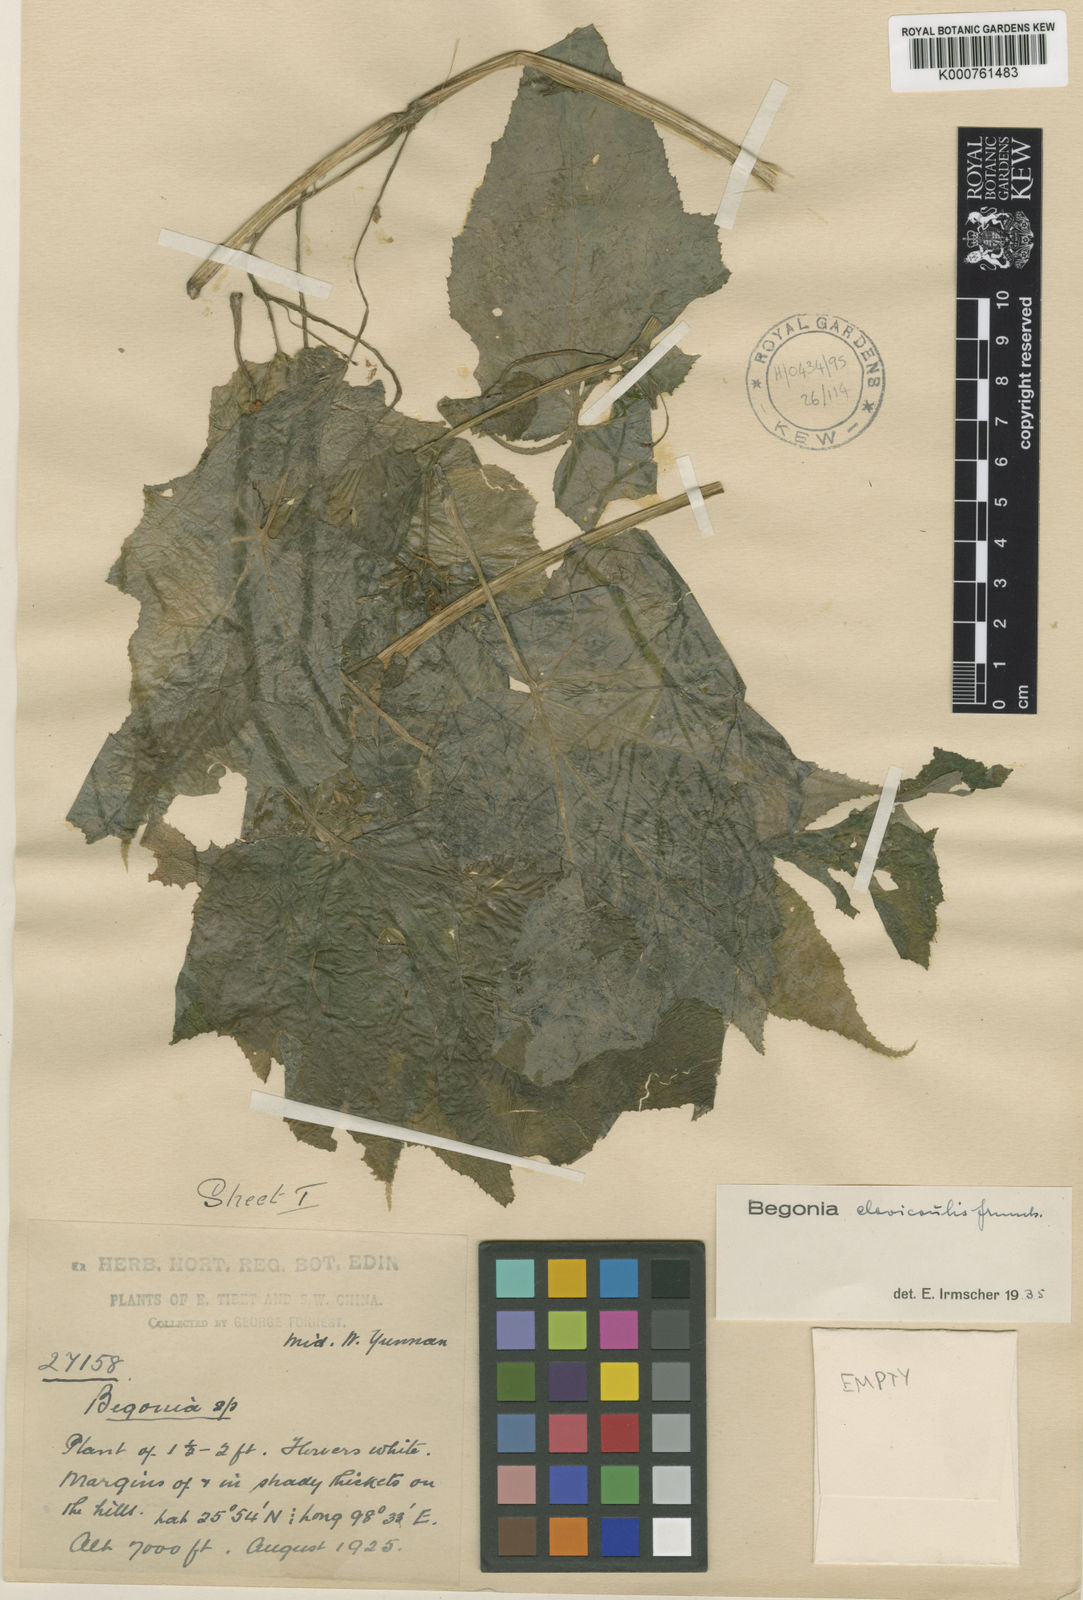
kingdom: Plantae
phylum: Tracheophyta
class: Magnoliopsida
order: Cucurbitales
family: Begoniaceae
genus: Begonia
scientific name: Begonia clavicaulis
